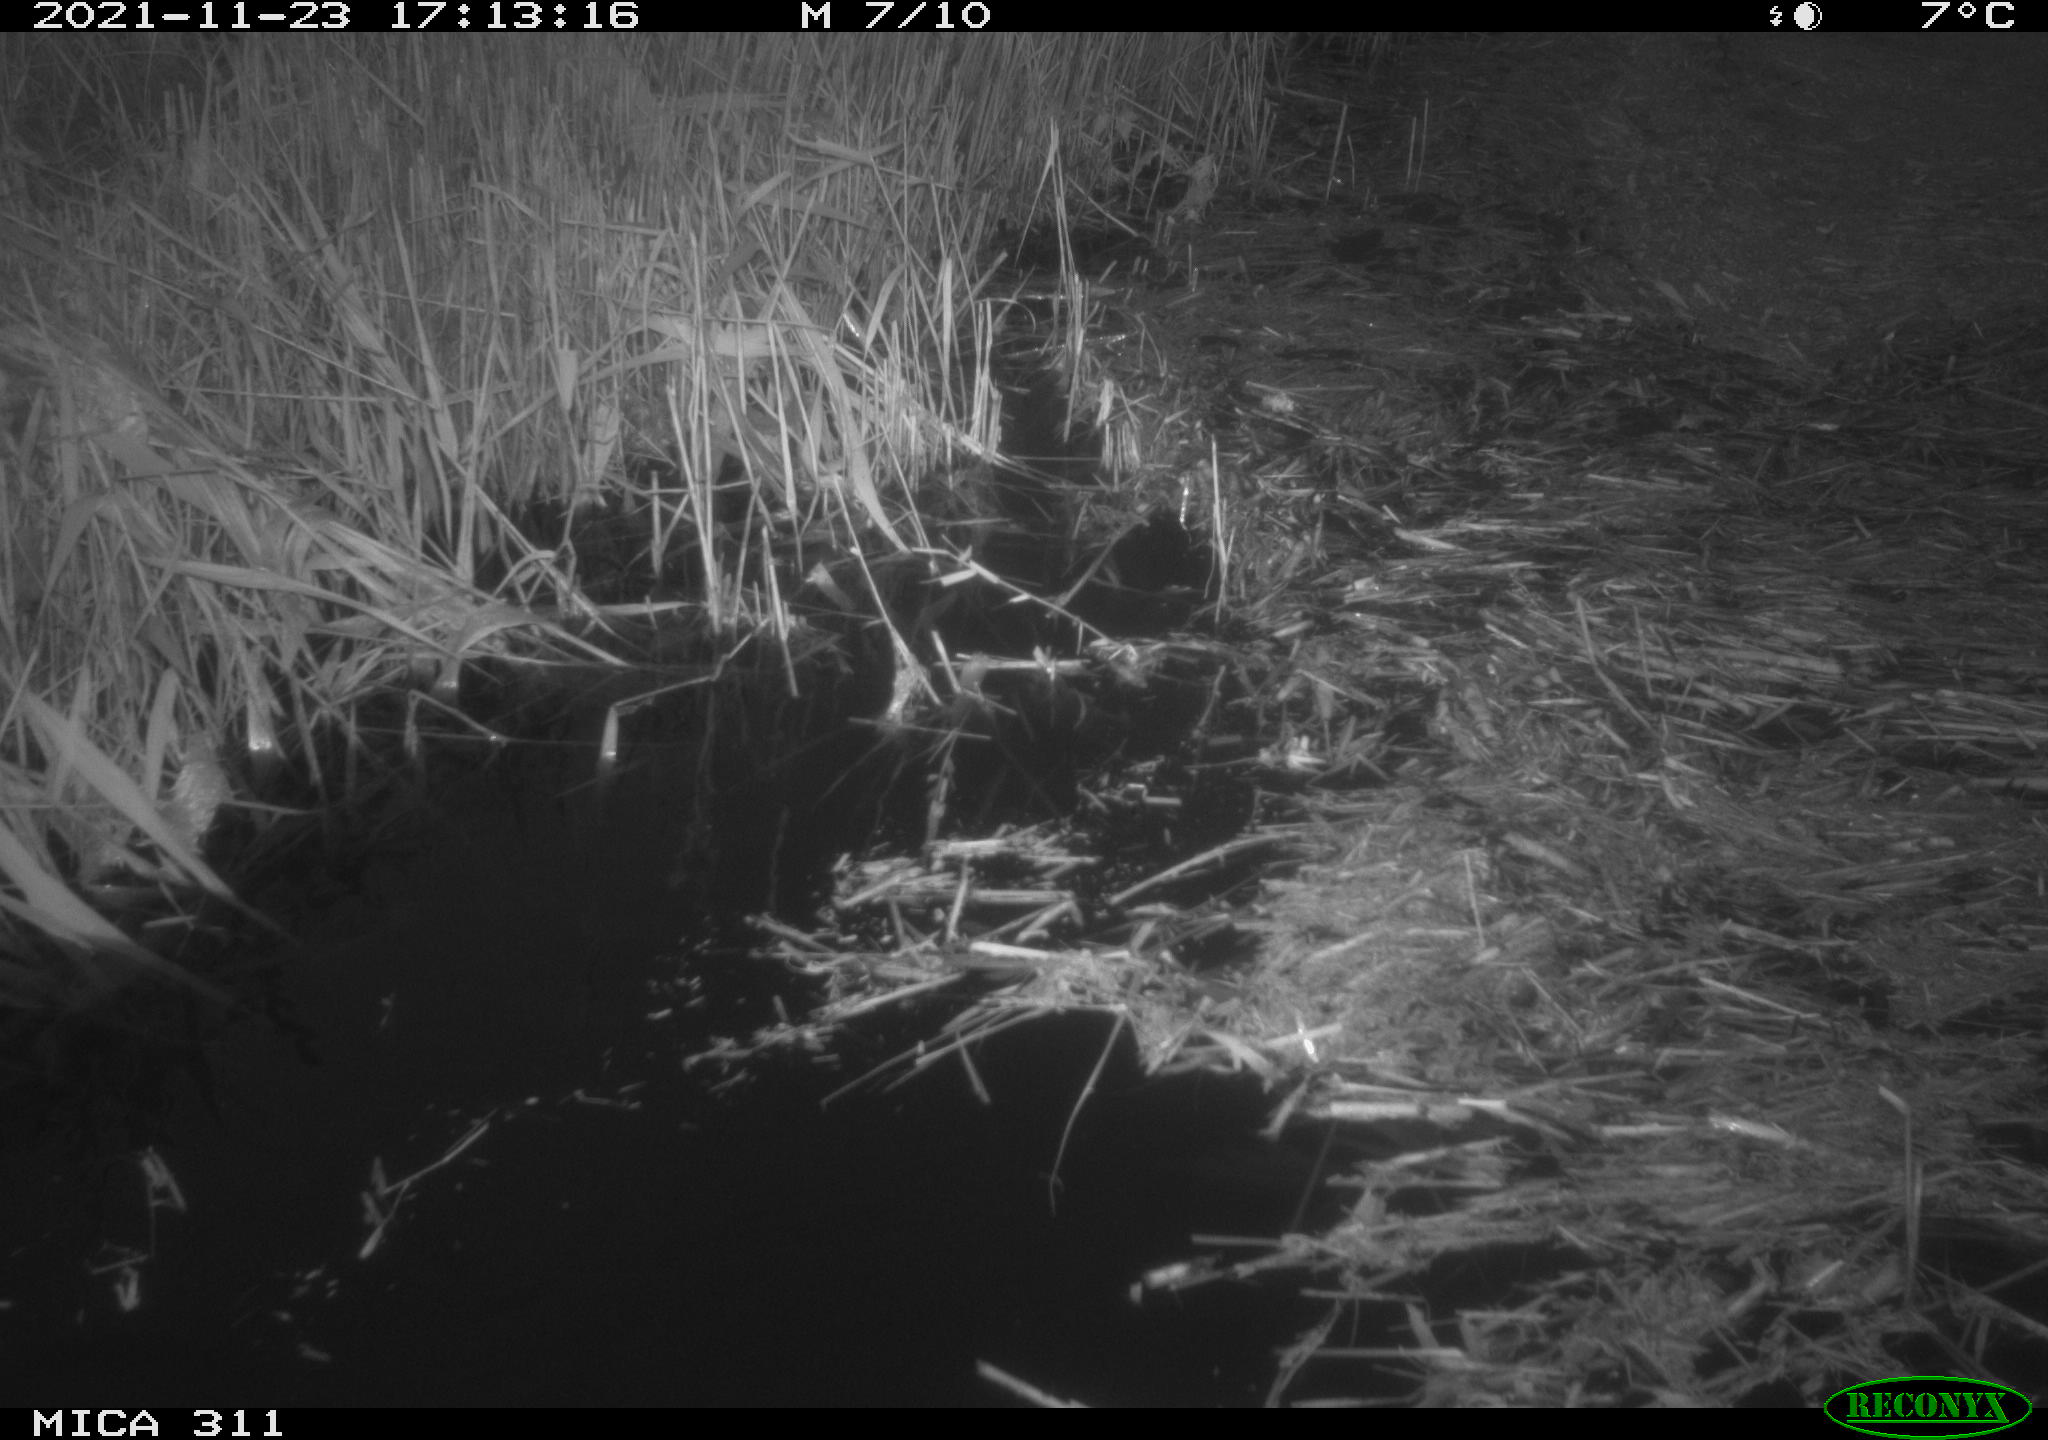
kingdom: Animalia
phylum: Chordata
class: Aves
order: Gruiformes
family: Rallidae
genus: Gallinula
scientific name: Gallinula chloropus
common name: Common moorhen
